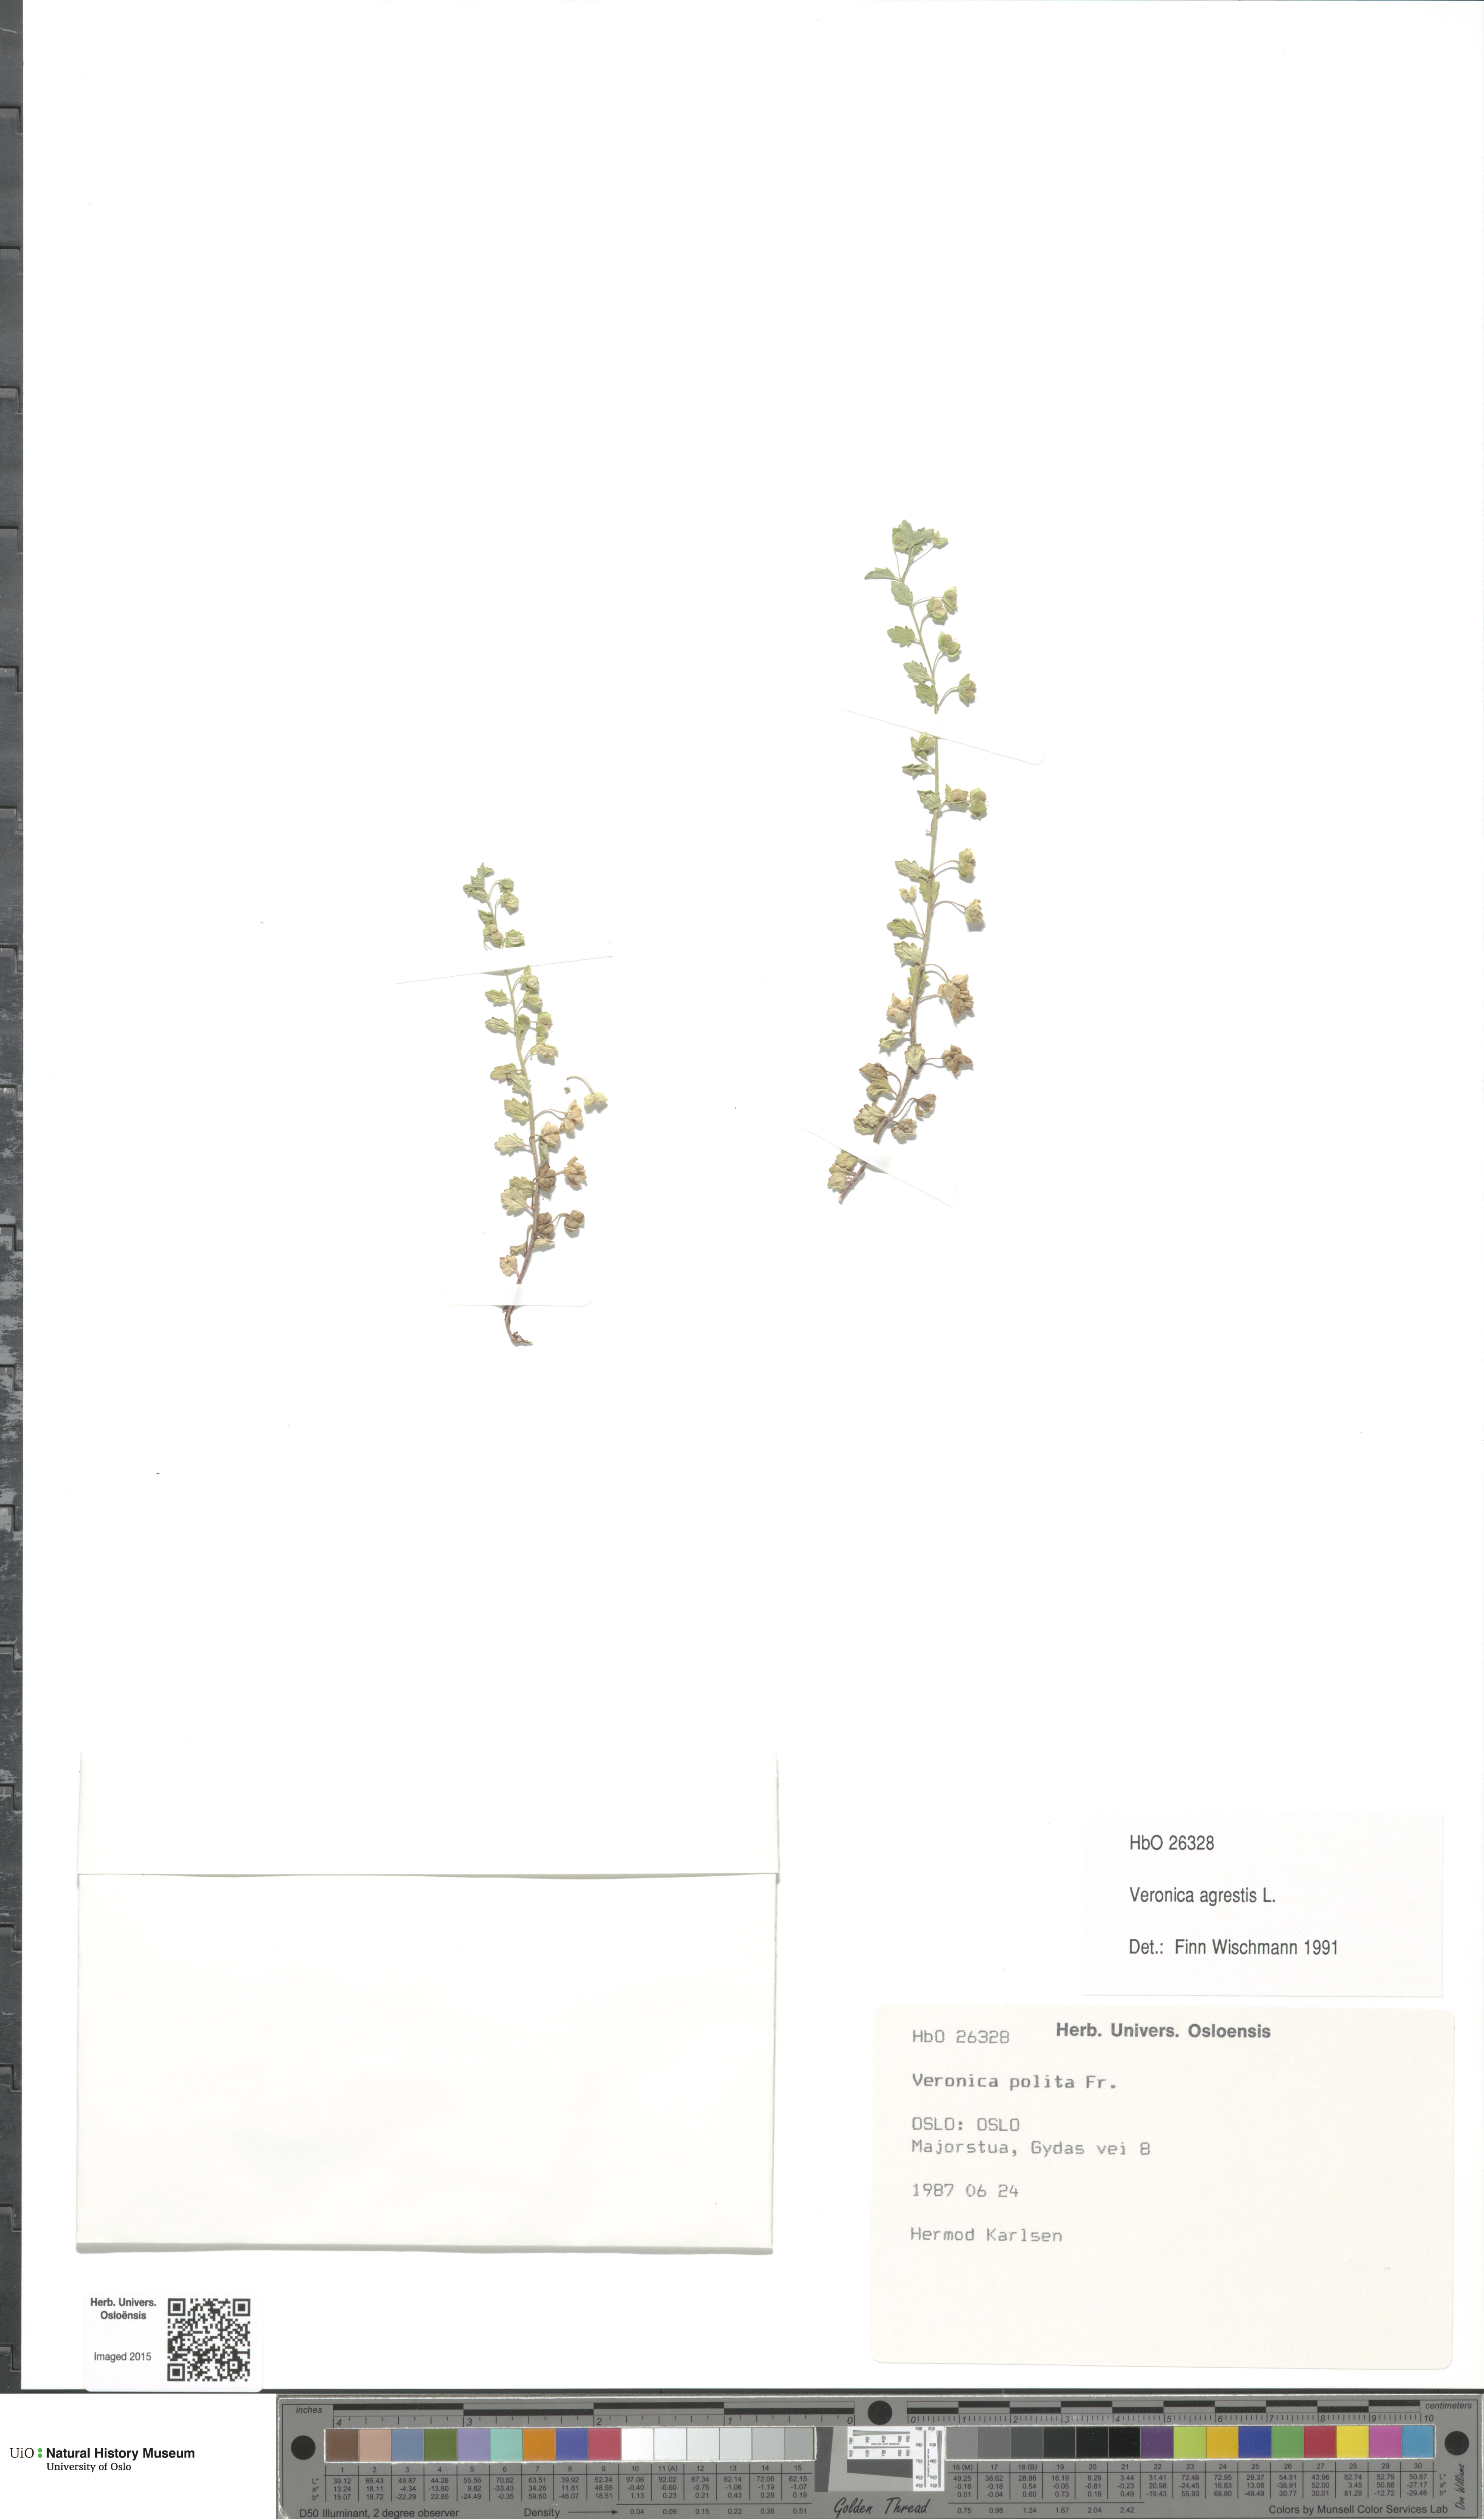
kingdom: Plantae
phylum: Tracheophyta
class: Magnoliopsida
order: Lamiales
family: Plantaginaceae
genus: Veronica
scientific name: Veronica agrestis
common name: Green field-speedwell
